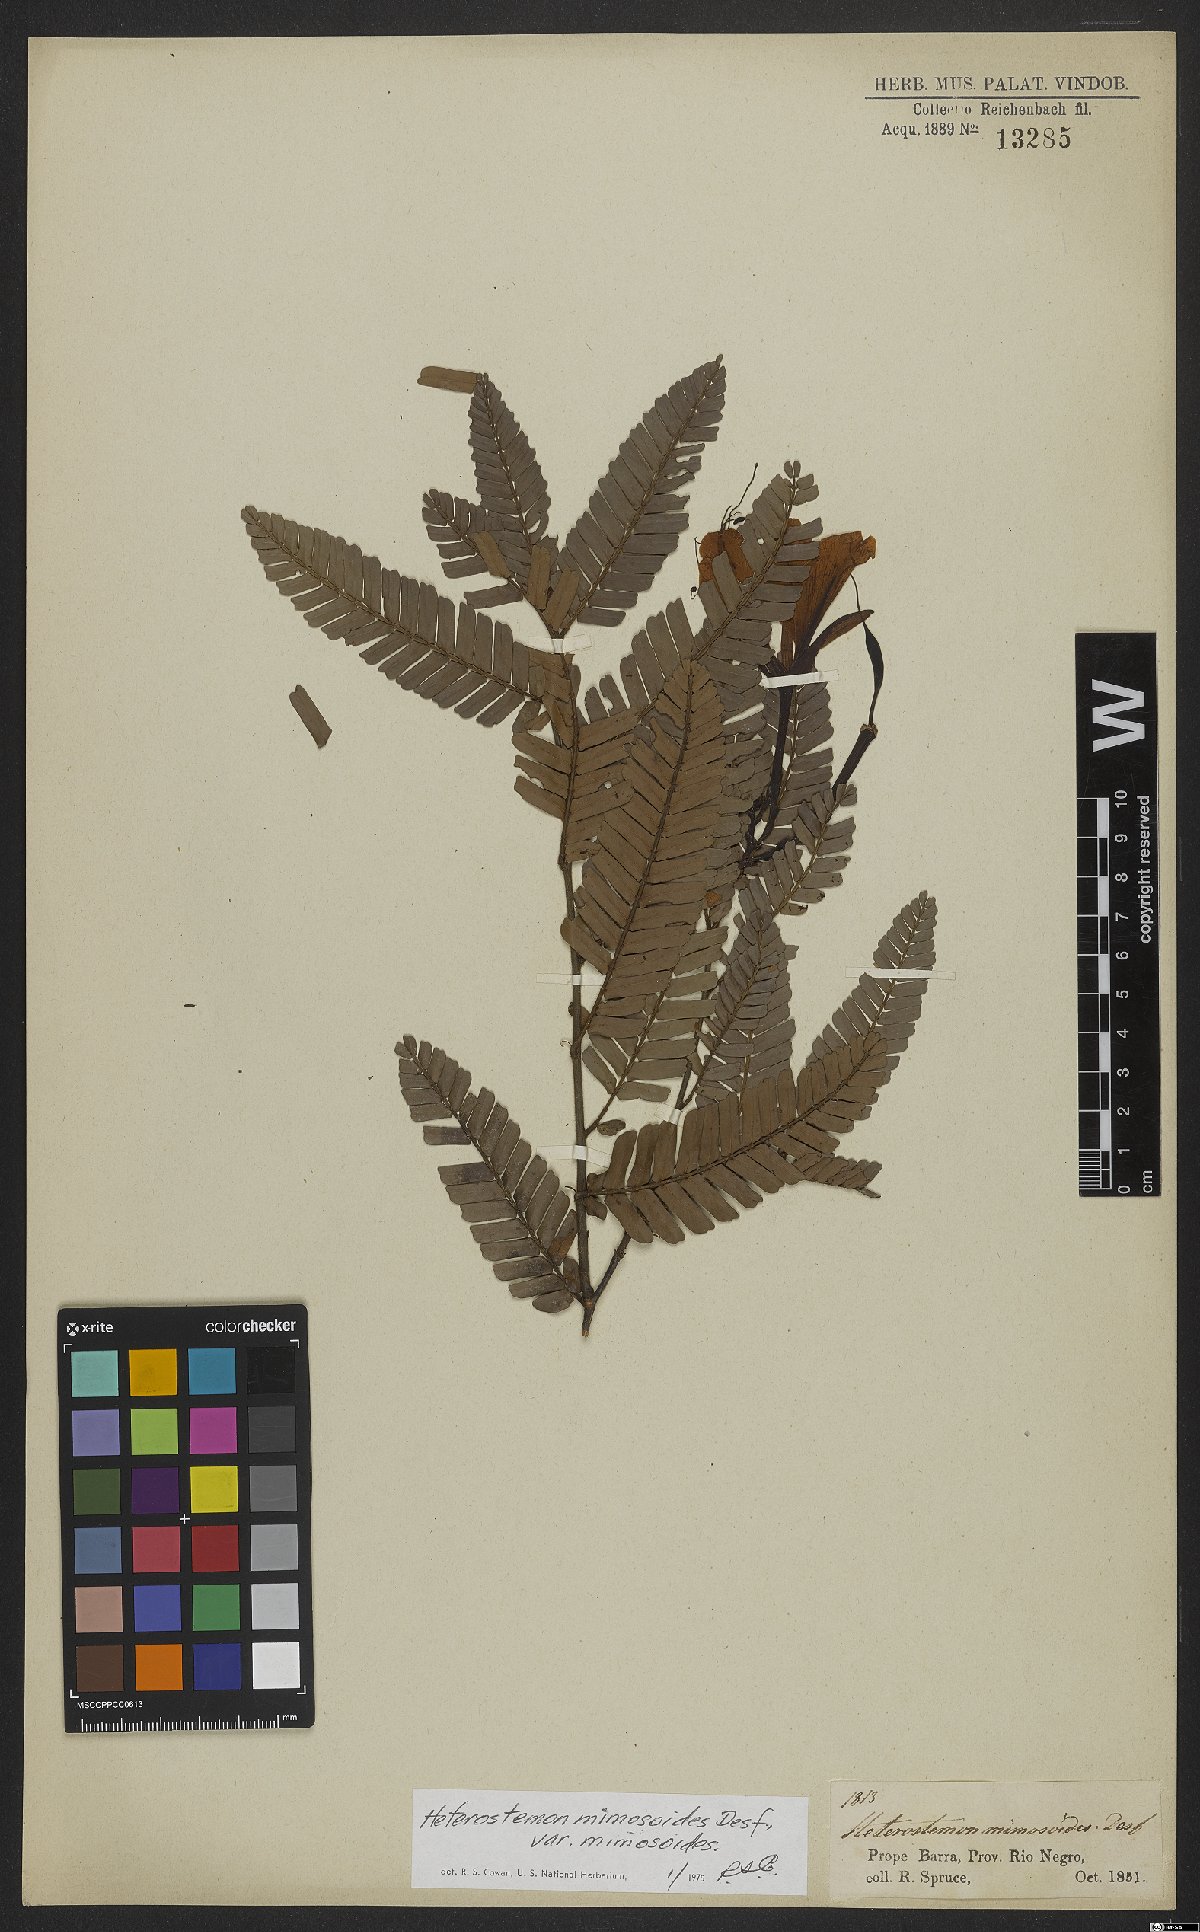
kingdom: Plantae
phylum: Tracheophyta
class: Magnoliopsida
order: Fabales
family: Fabaceae
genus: Heterostemon
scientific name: Heterostemon mimosoides
